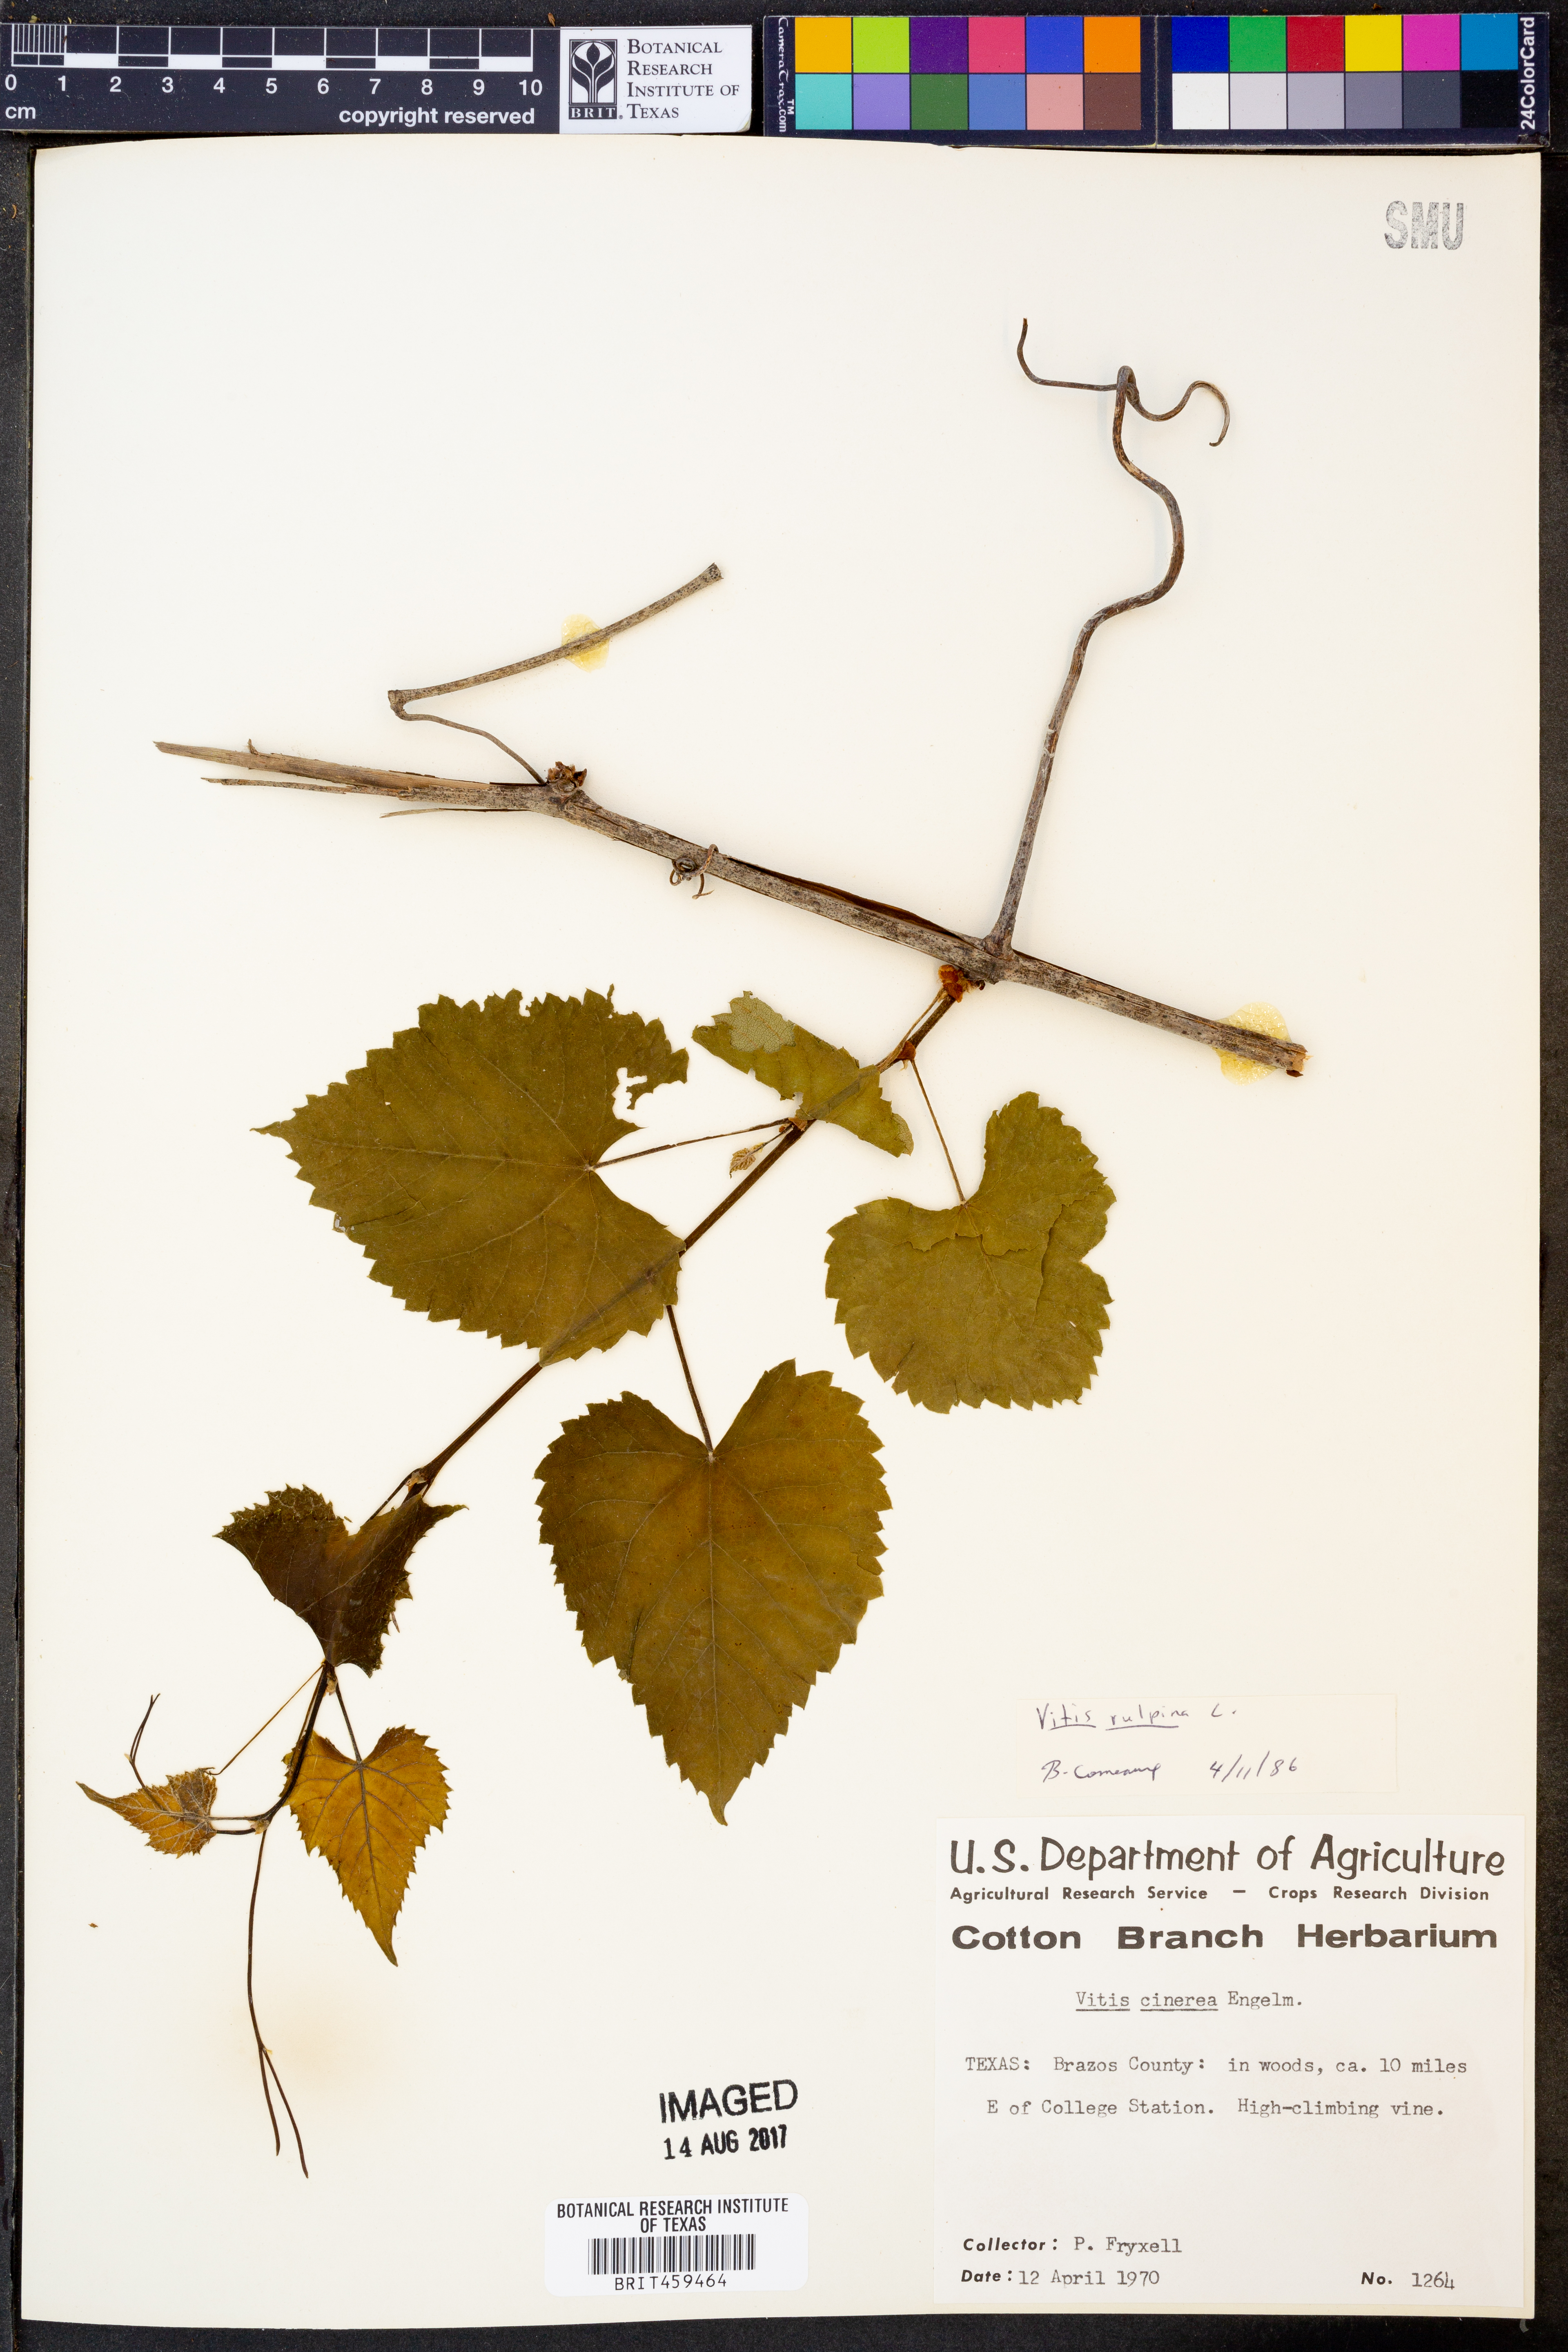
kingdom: Plantae
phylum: Tracheophyta
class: Magnoliopsida
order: Vitales
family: Vitaceae
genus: Vitis
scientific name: Vitis cinerea
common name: Ashy grape
